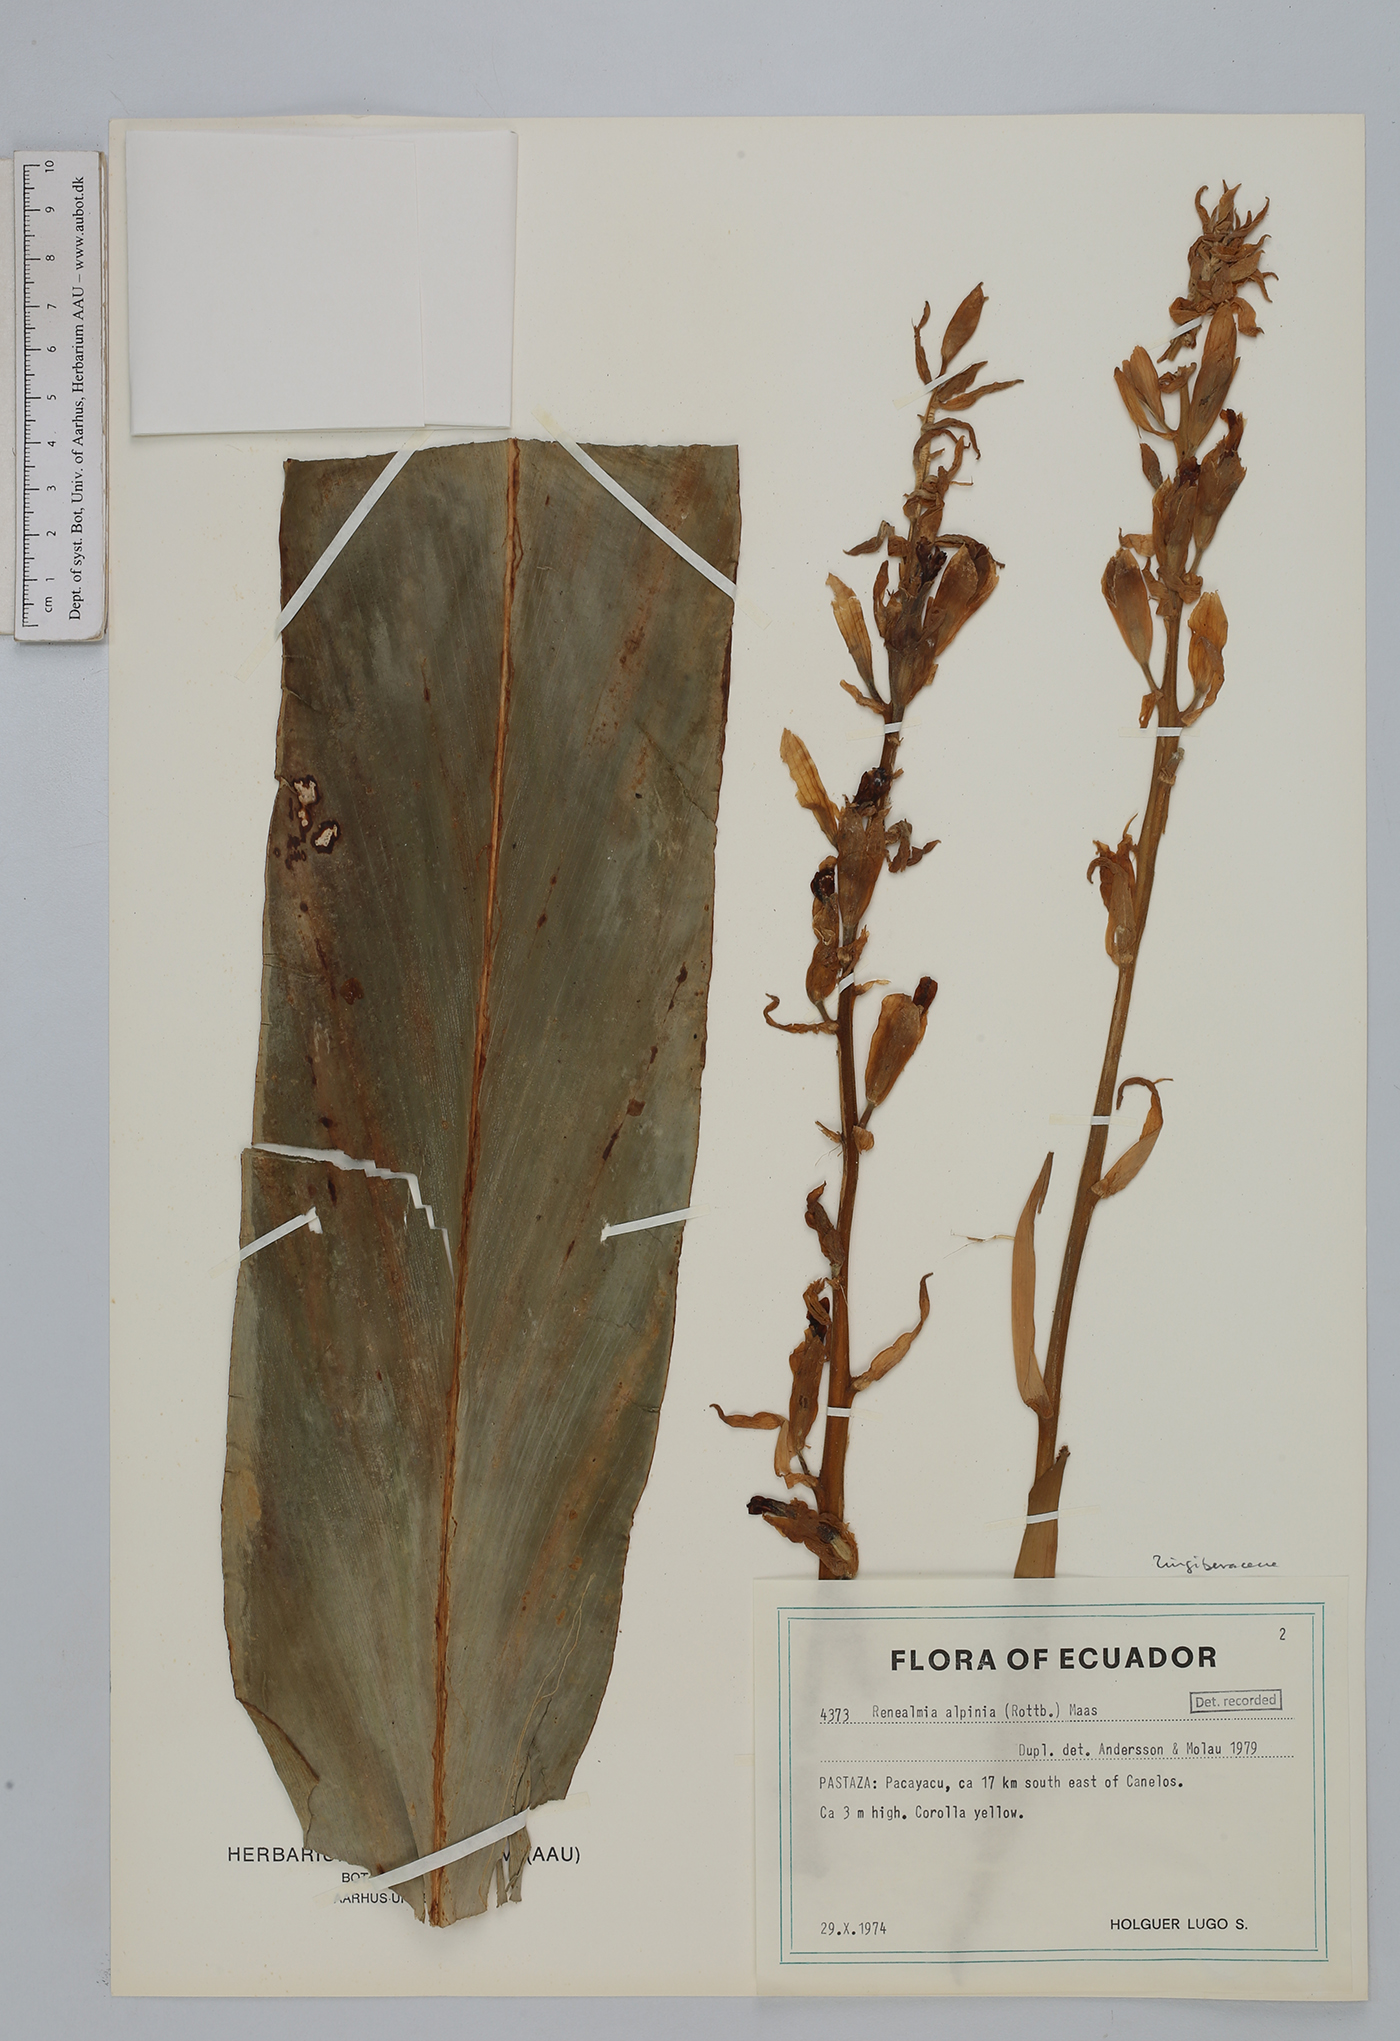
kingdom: Plantae
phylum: Tracheophyta
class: Liliopsida
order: Zingiberales
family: Zingiberaceae
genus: Renealmia
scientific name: Renealmia alpinia
